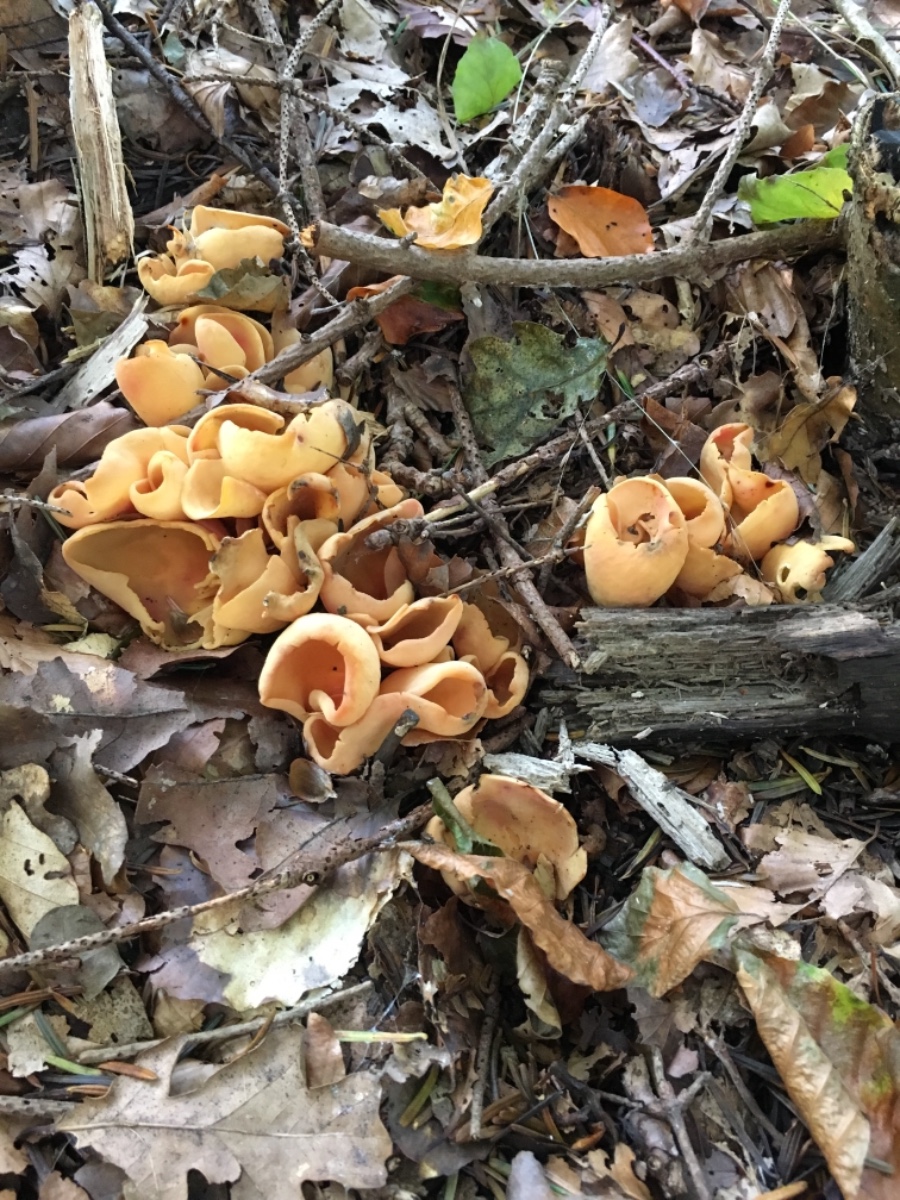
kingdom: Fungi
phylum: Ascomycota
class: Pezizomycetes
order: Pezizales
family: Otideaceae
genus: Otidea
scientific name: Otidea onotica
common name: æsel-ørebæger
